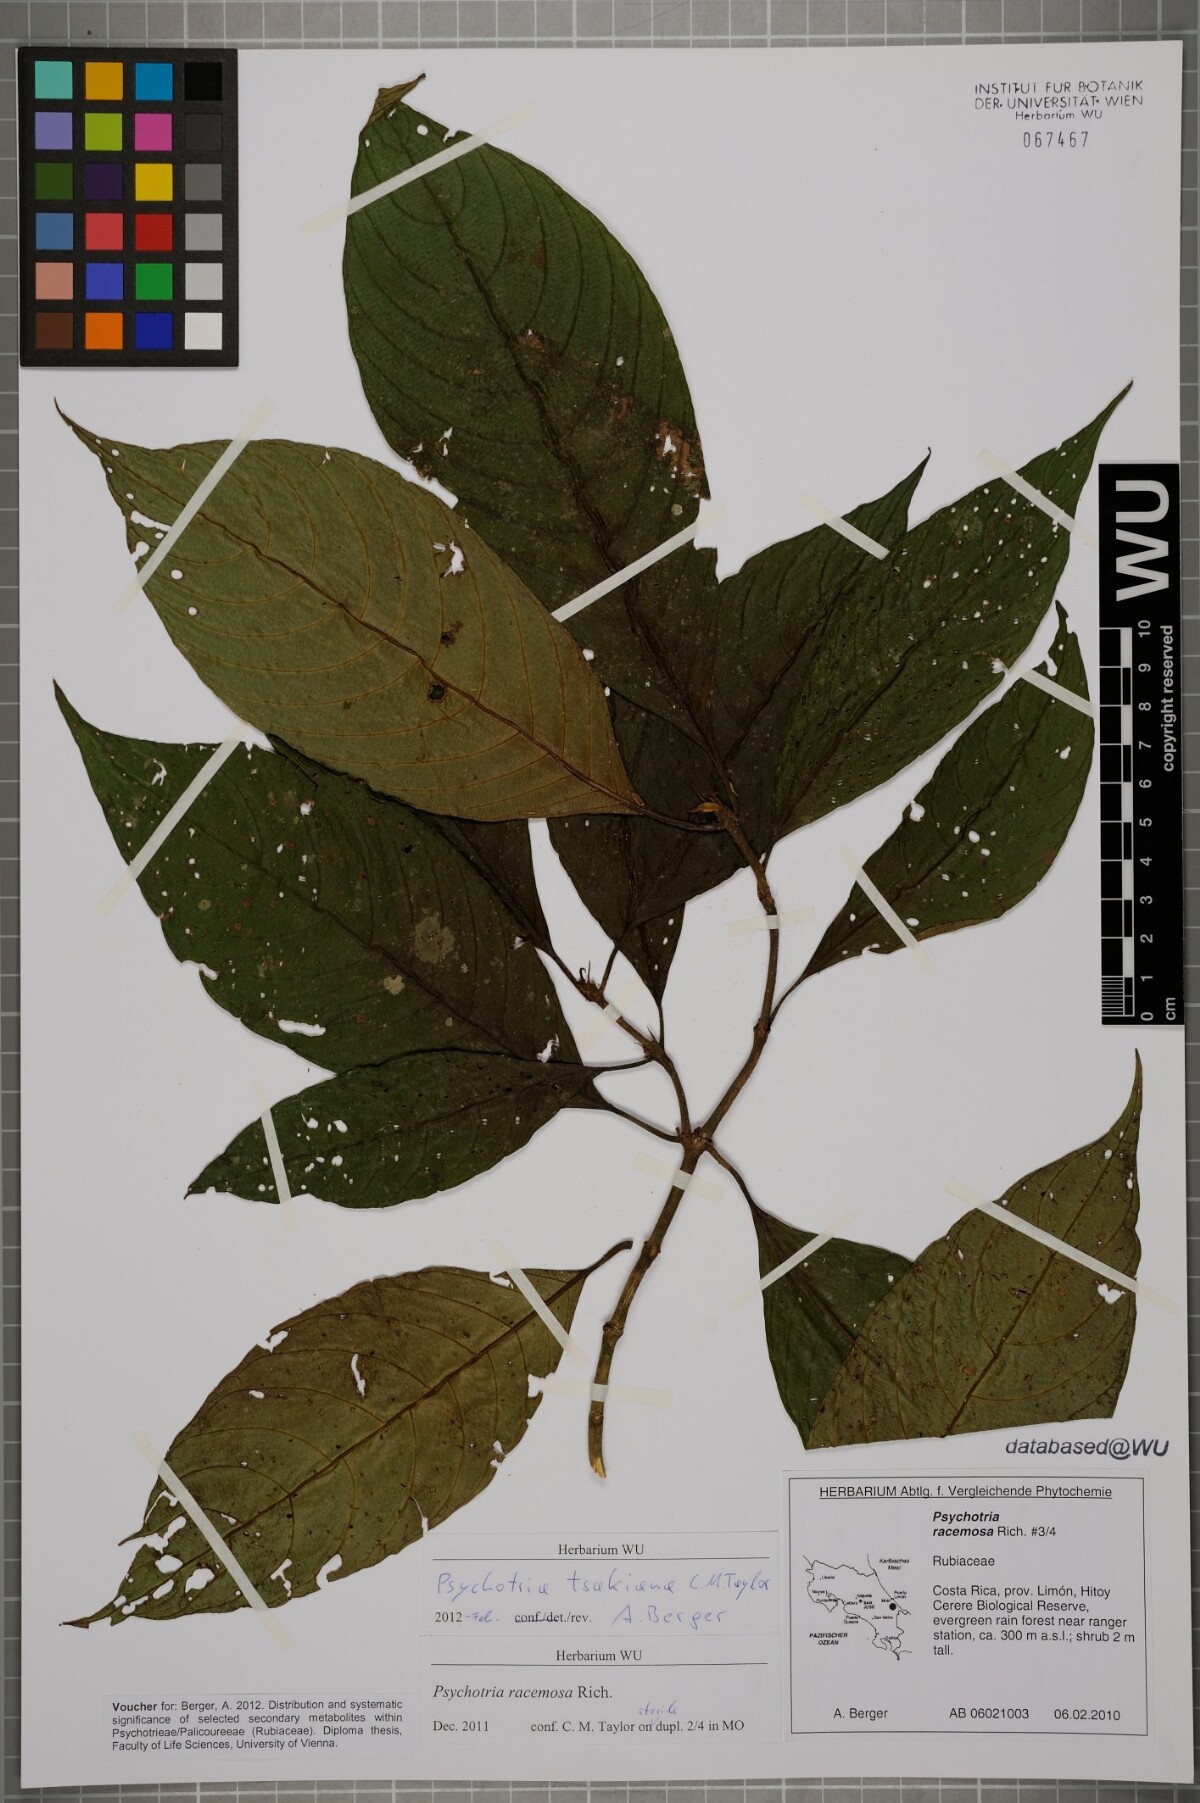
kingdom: Plantae
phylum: Tracheophyta
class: Magnoliopsida
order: Gentianales
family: Rubiaceae
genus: Palicourea
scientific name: Palicourea tsakiana
